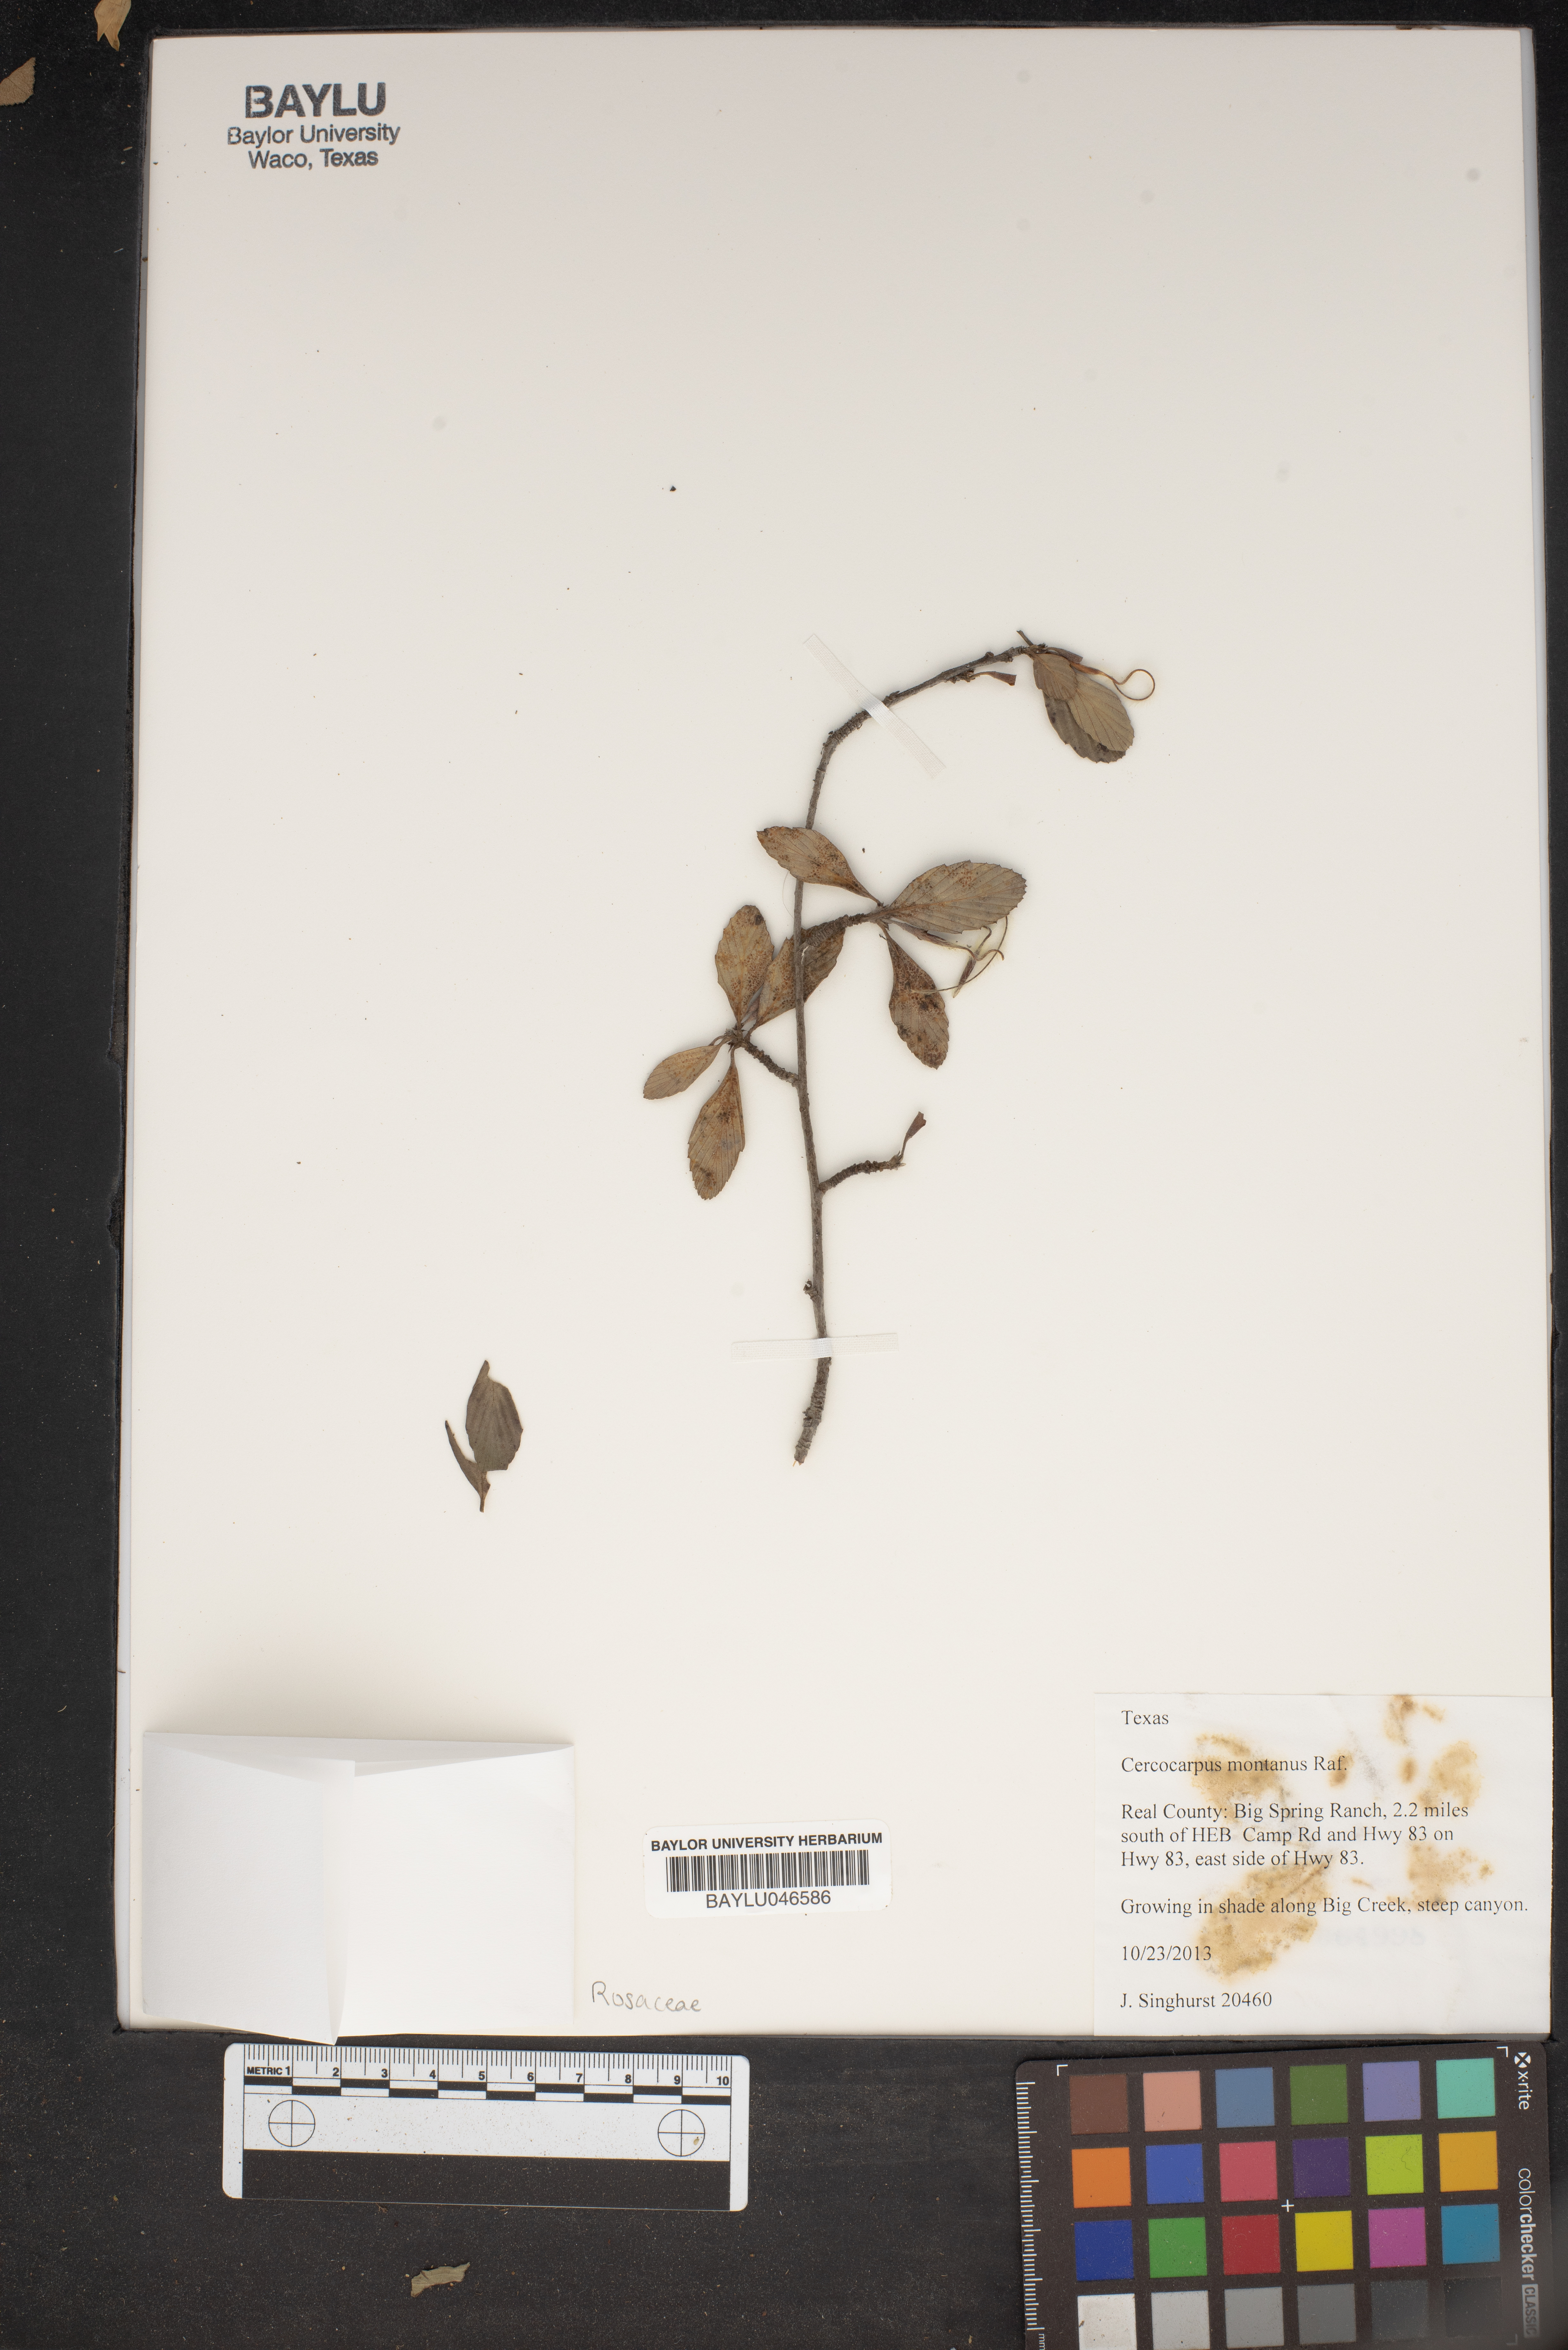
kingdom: Plantae
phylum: Tracheophyta
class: Magnoliopsida
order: Rosales
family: Rosaceae
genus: Cercocarpus
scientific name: Cercocarpus montanus
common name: Alder-leaf cercocarpus
